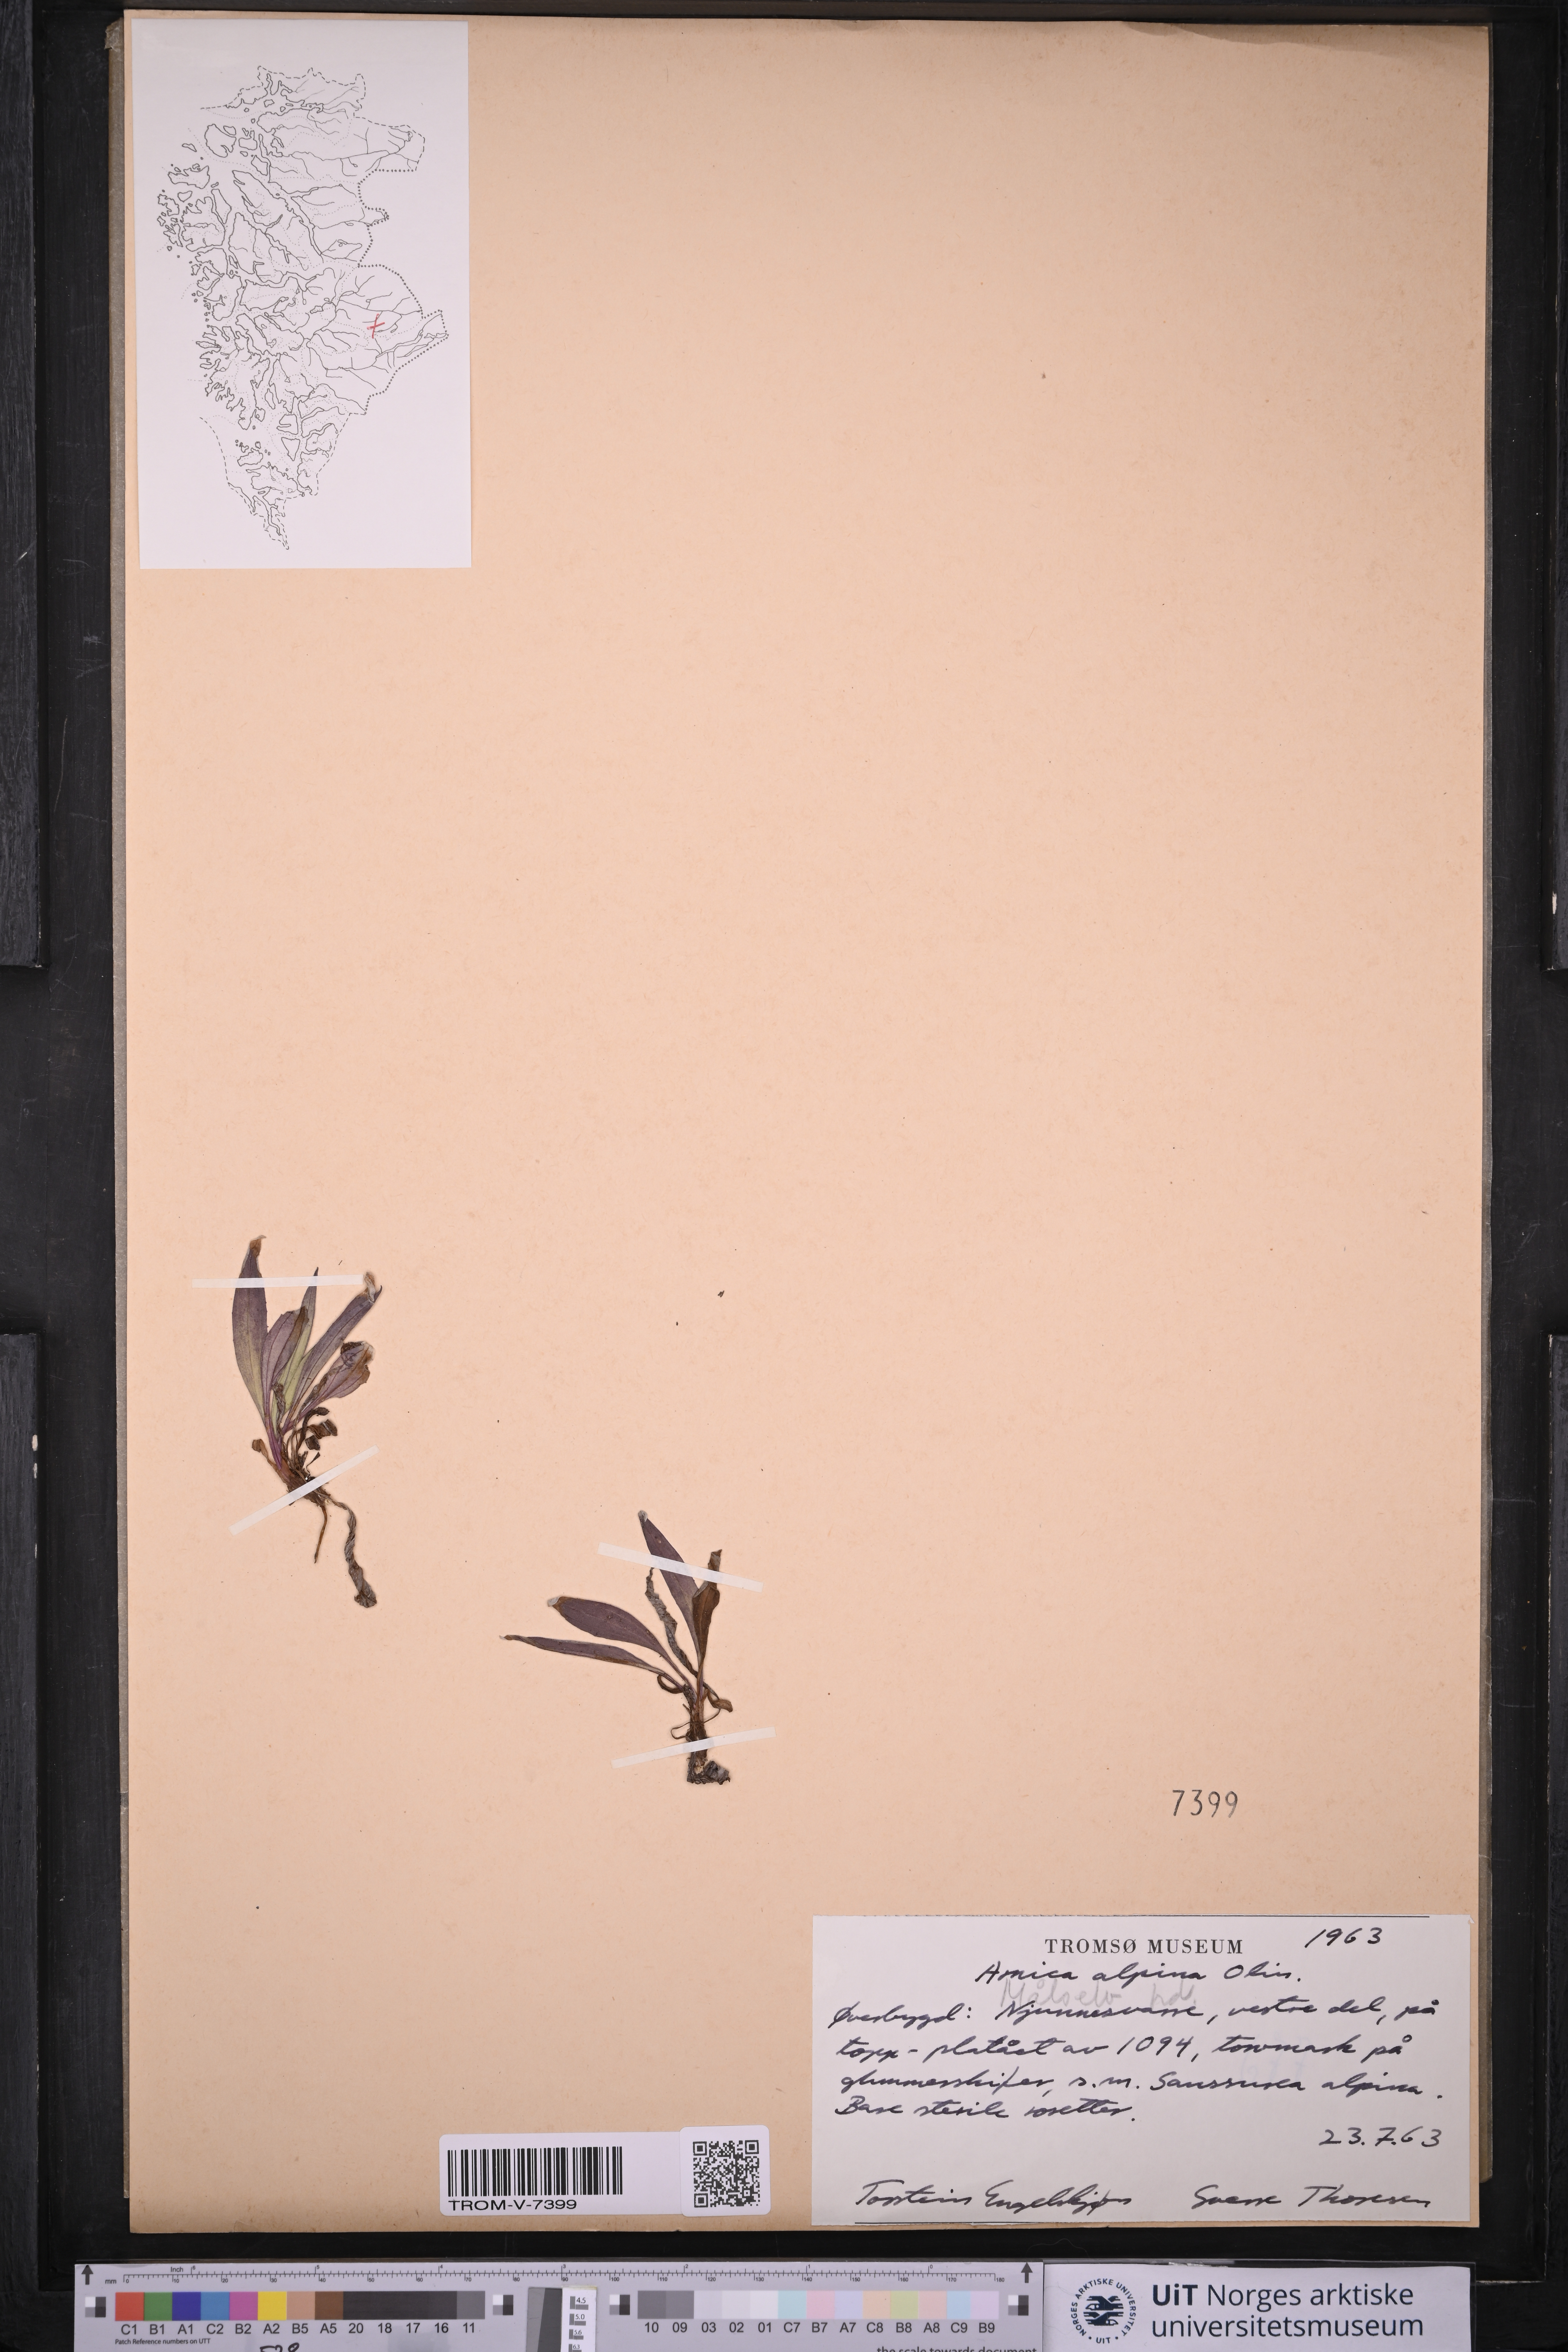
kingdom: Plantae
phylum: Tracheophyta
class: Magnoliopsida
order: Asterales
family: Asteraceae
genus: Arnica
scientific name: Arnica angustifolia
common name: Arctic arnica
